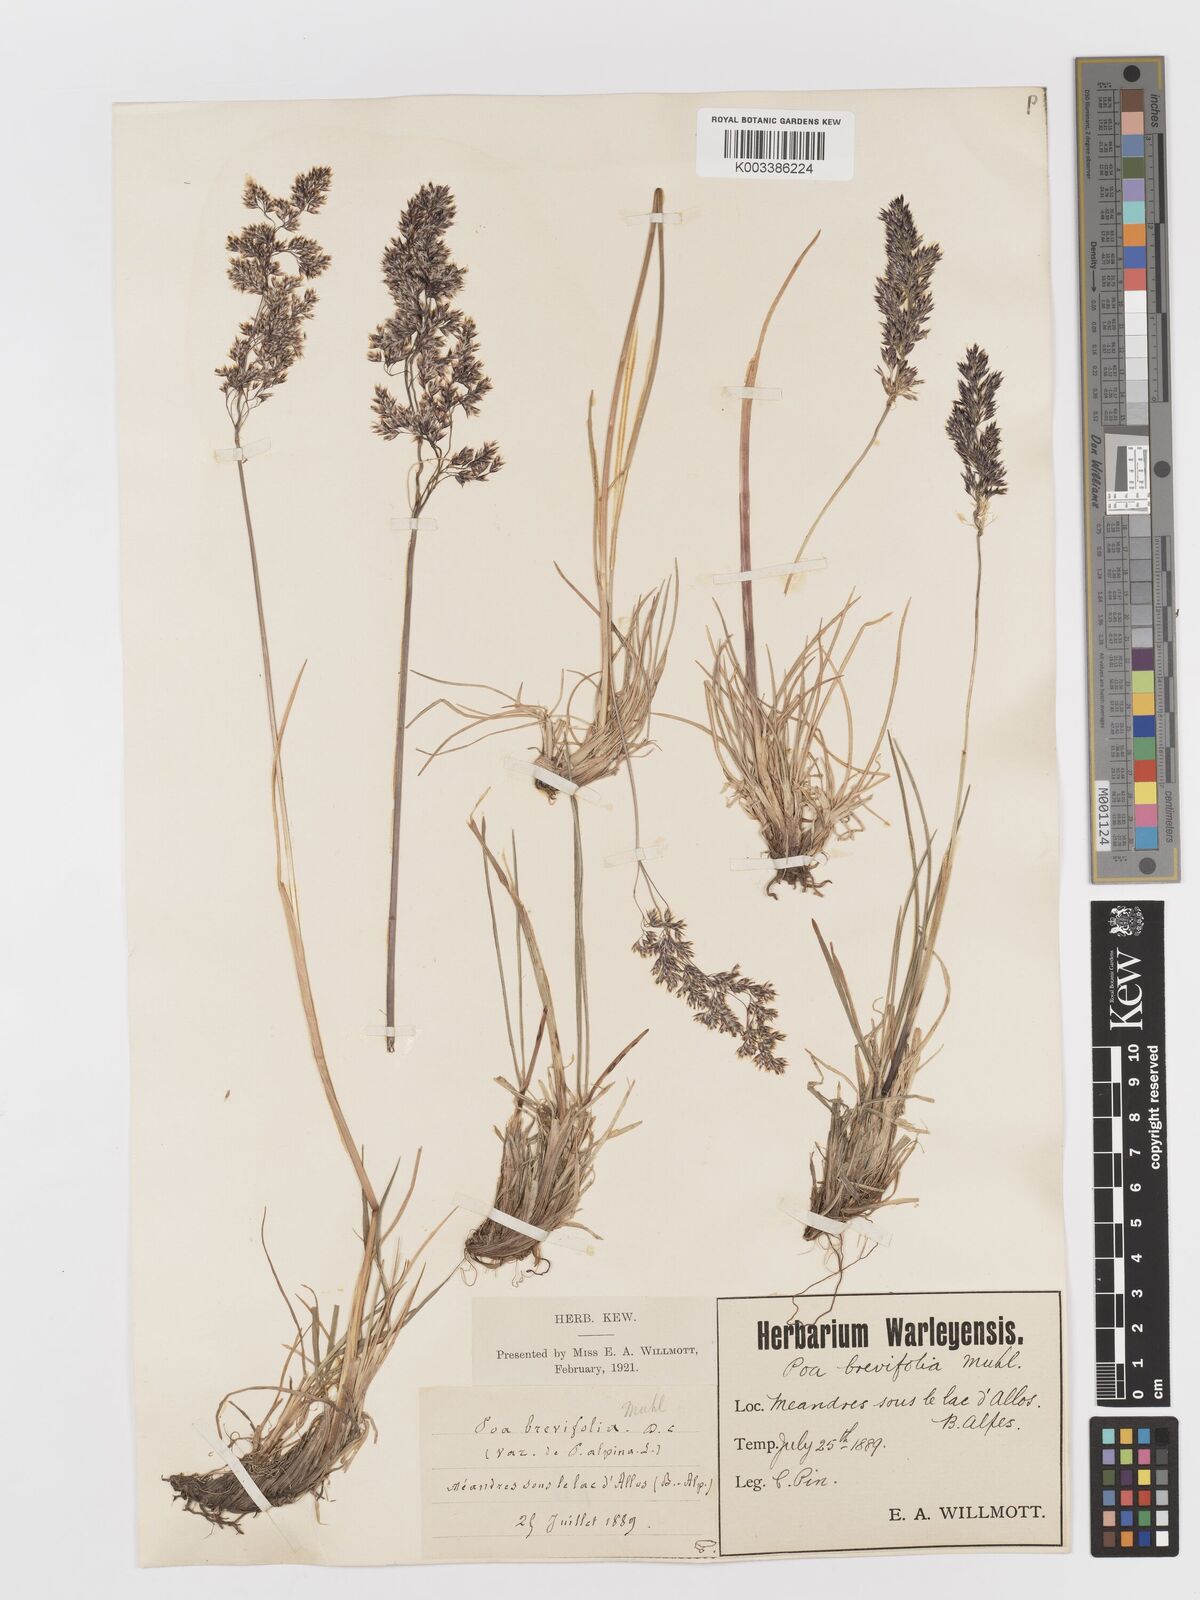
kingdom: Plantae
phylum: Tracheophyta
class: Liliopsida
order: Poales
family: Poaceae
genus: Deschampsia
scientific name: Deschampsia
